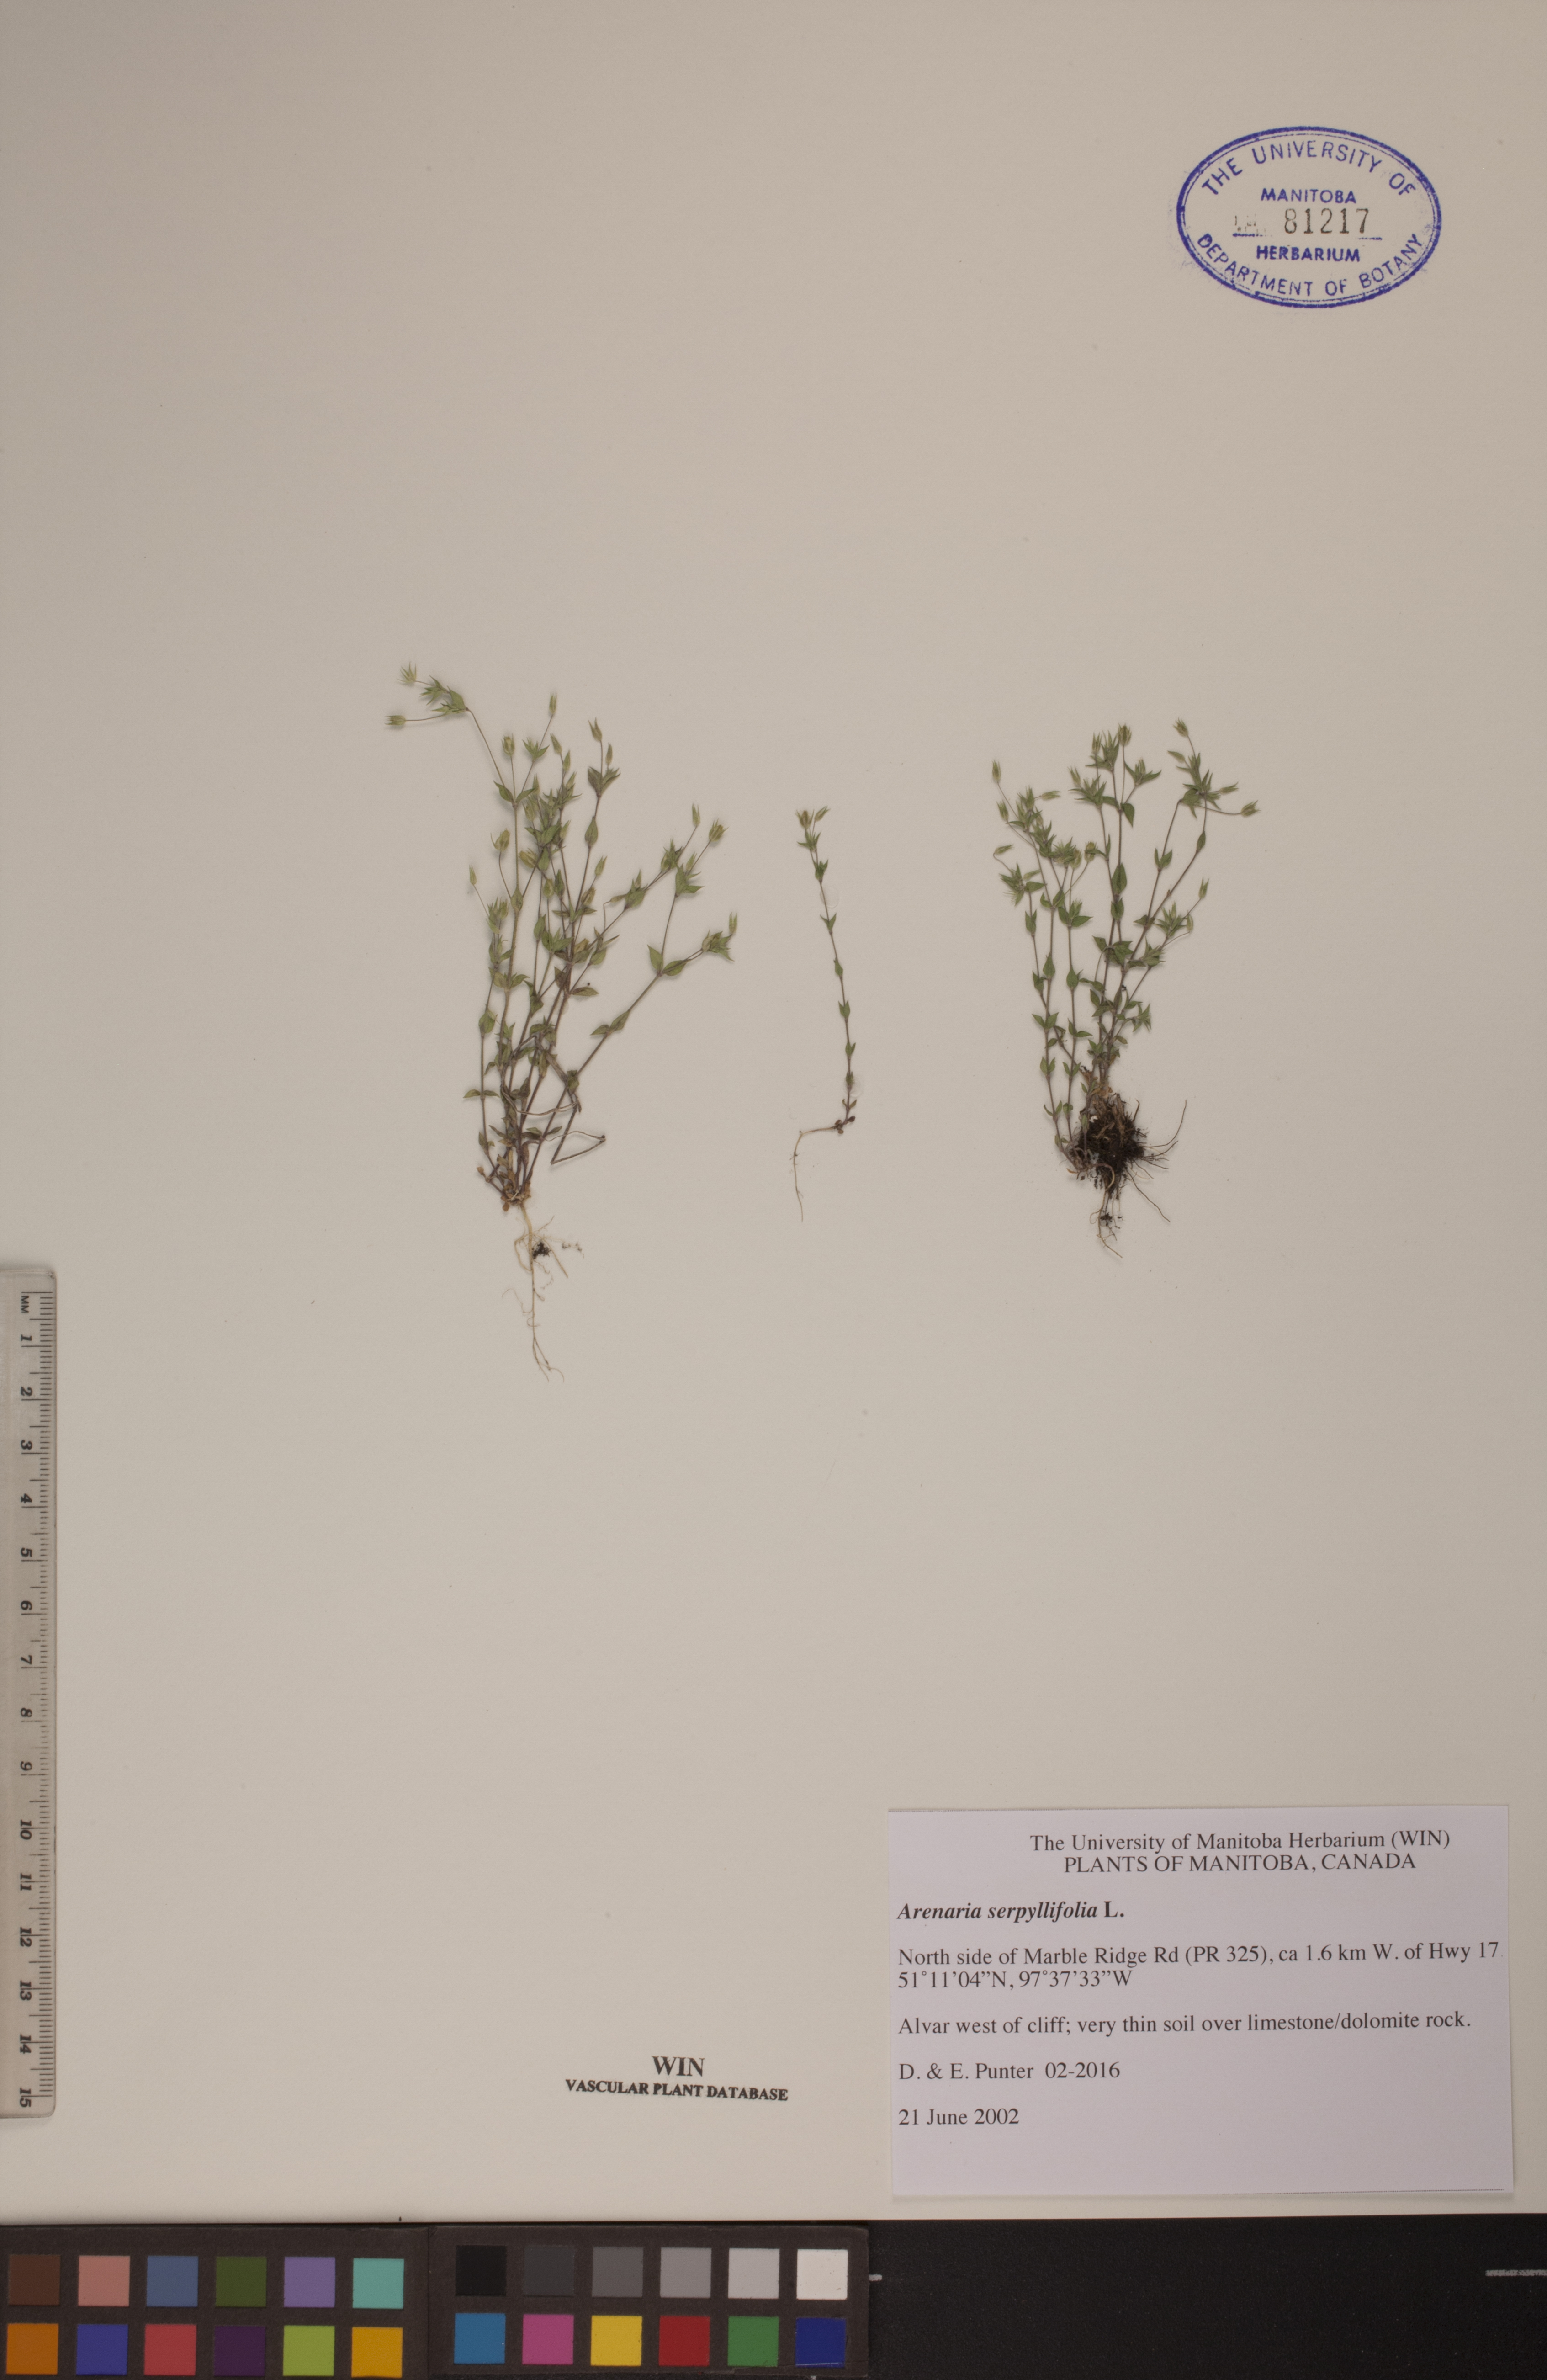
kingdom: Plantae
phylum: Tracheophyta
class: Magnoliopsida
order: Caryophyllales
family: Caryophyllaceae
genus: Arenaria
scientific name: Arenaria serpyllifolia
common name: Thyme-leaved sandwort
